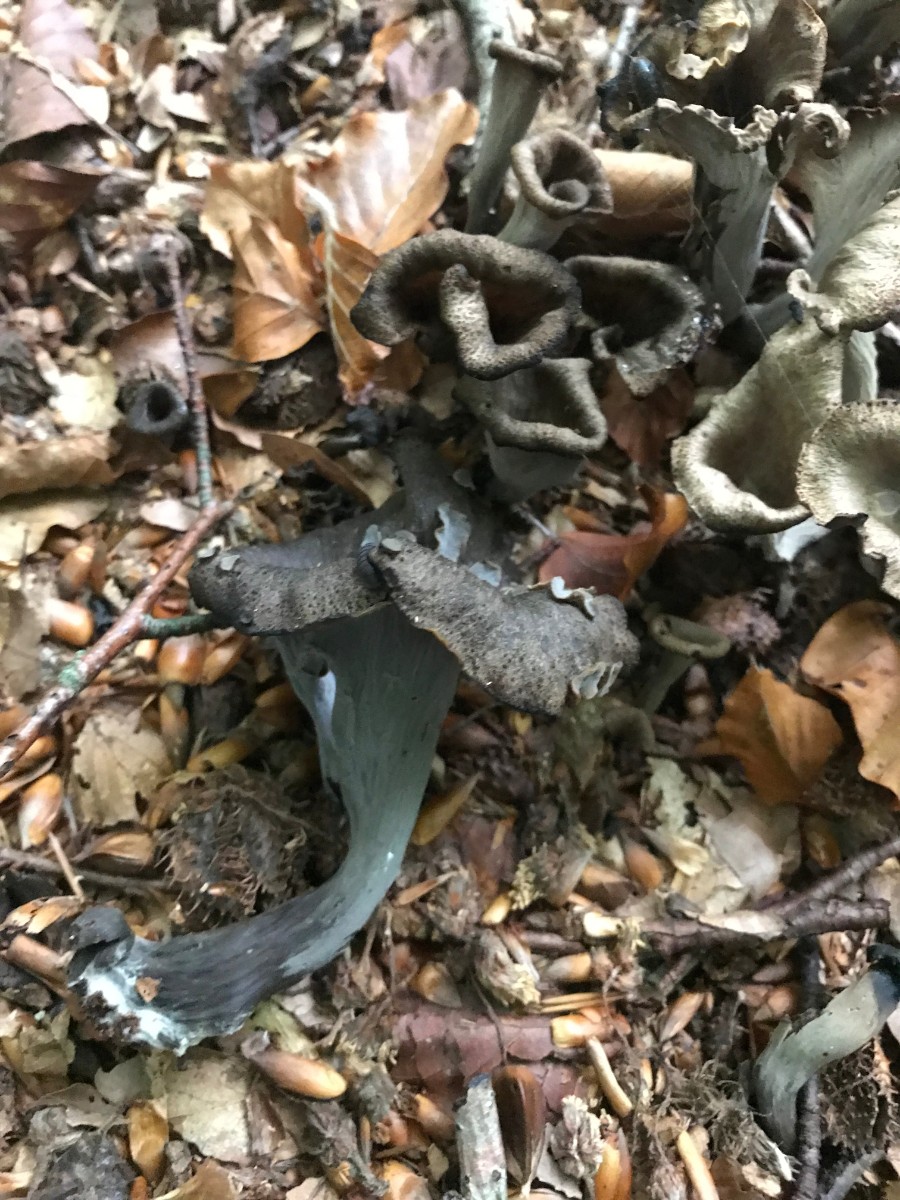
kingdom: Fungi
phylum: Basidiomycota
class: Agaricomycetes
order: Cantharellales
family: Hydnaceae
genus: Craterellus
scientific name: Craterellus cornucopioides
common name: trompetsvamp
